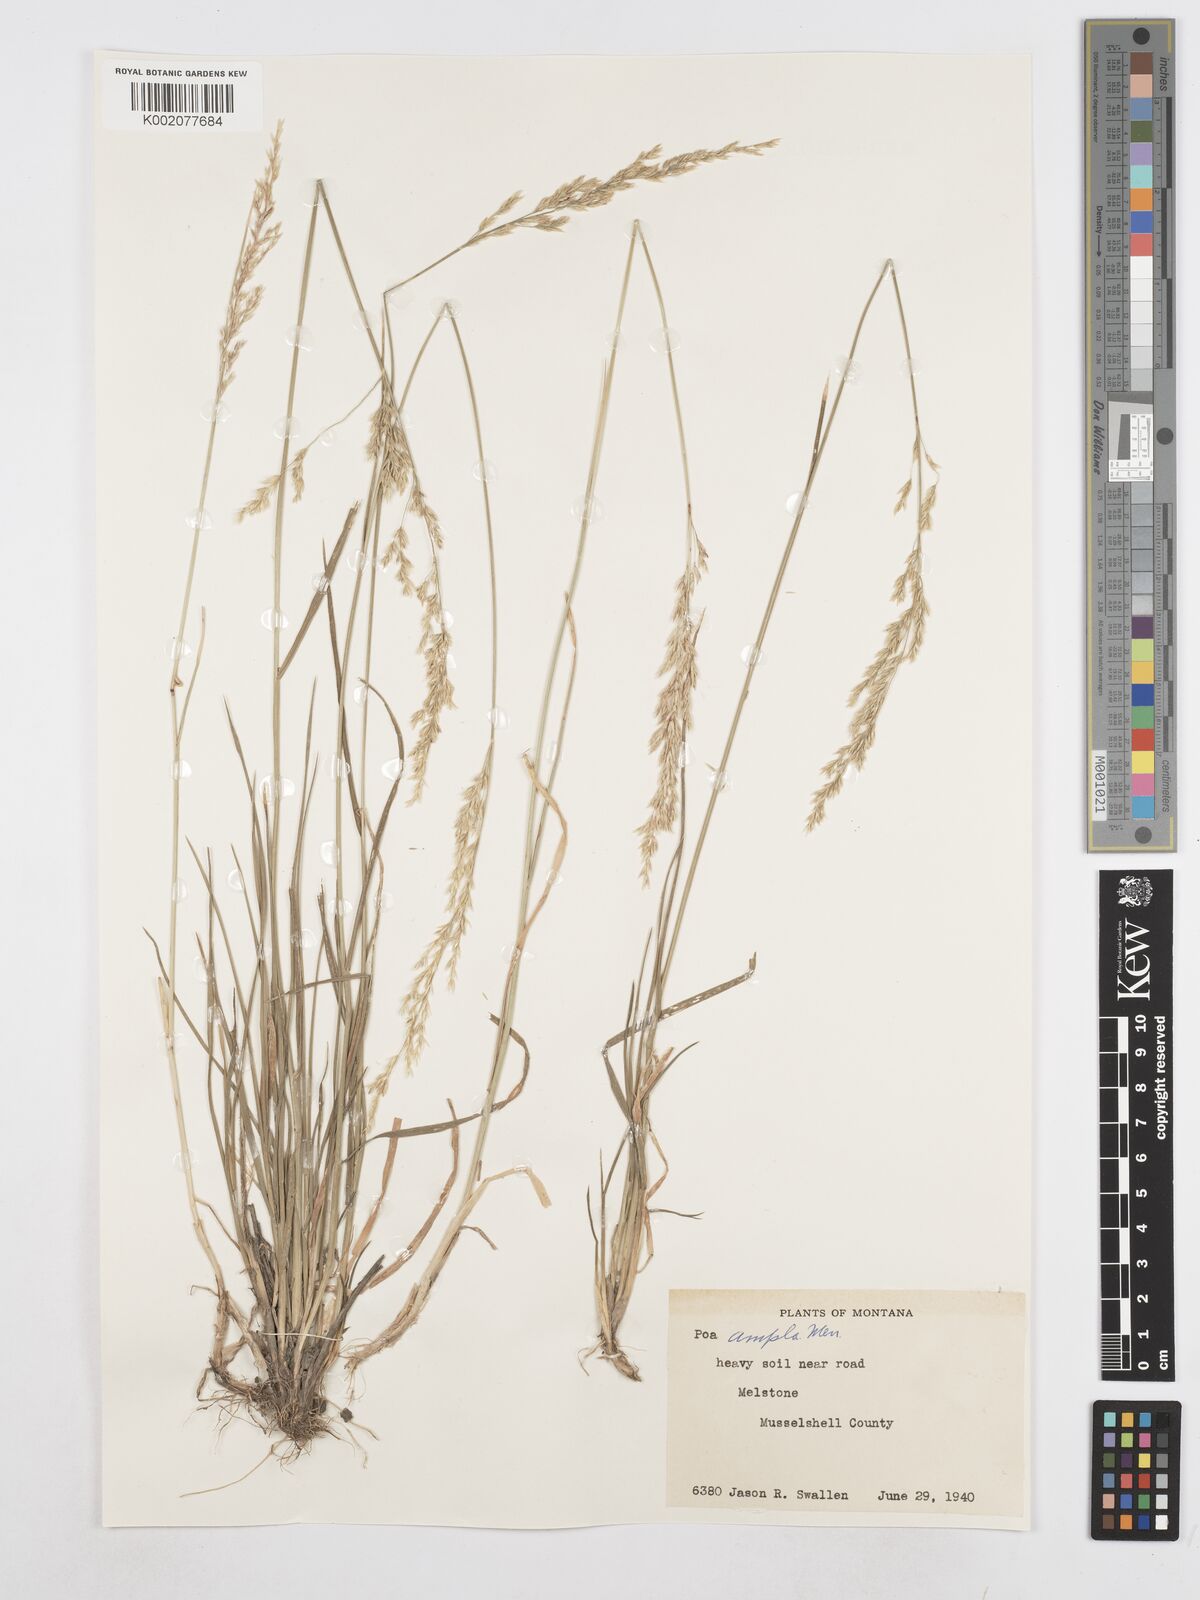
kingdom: Plantae
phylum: Tracheophyta
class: Liliopsida
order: Poales
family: Poaceae
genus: Poa
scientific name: Poa secunda
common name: Sandberg bluegrass
